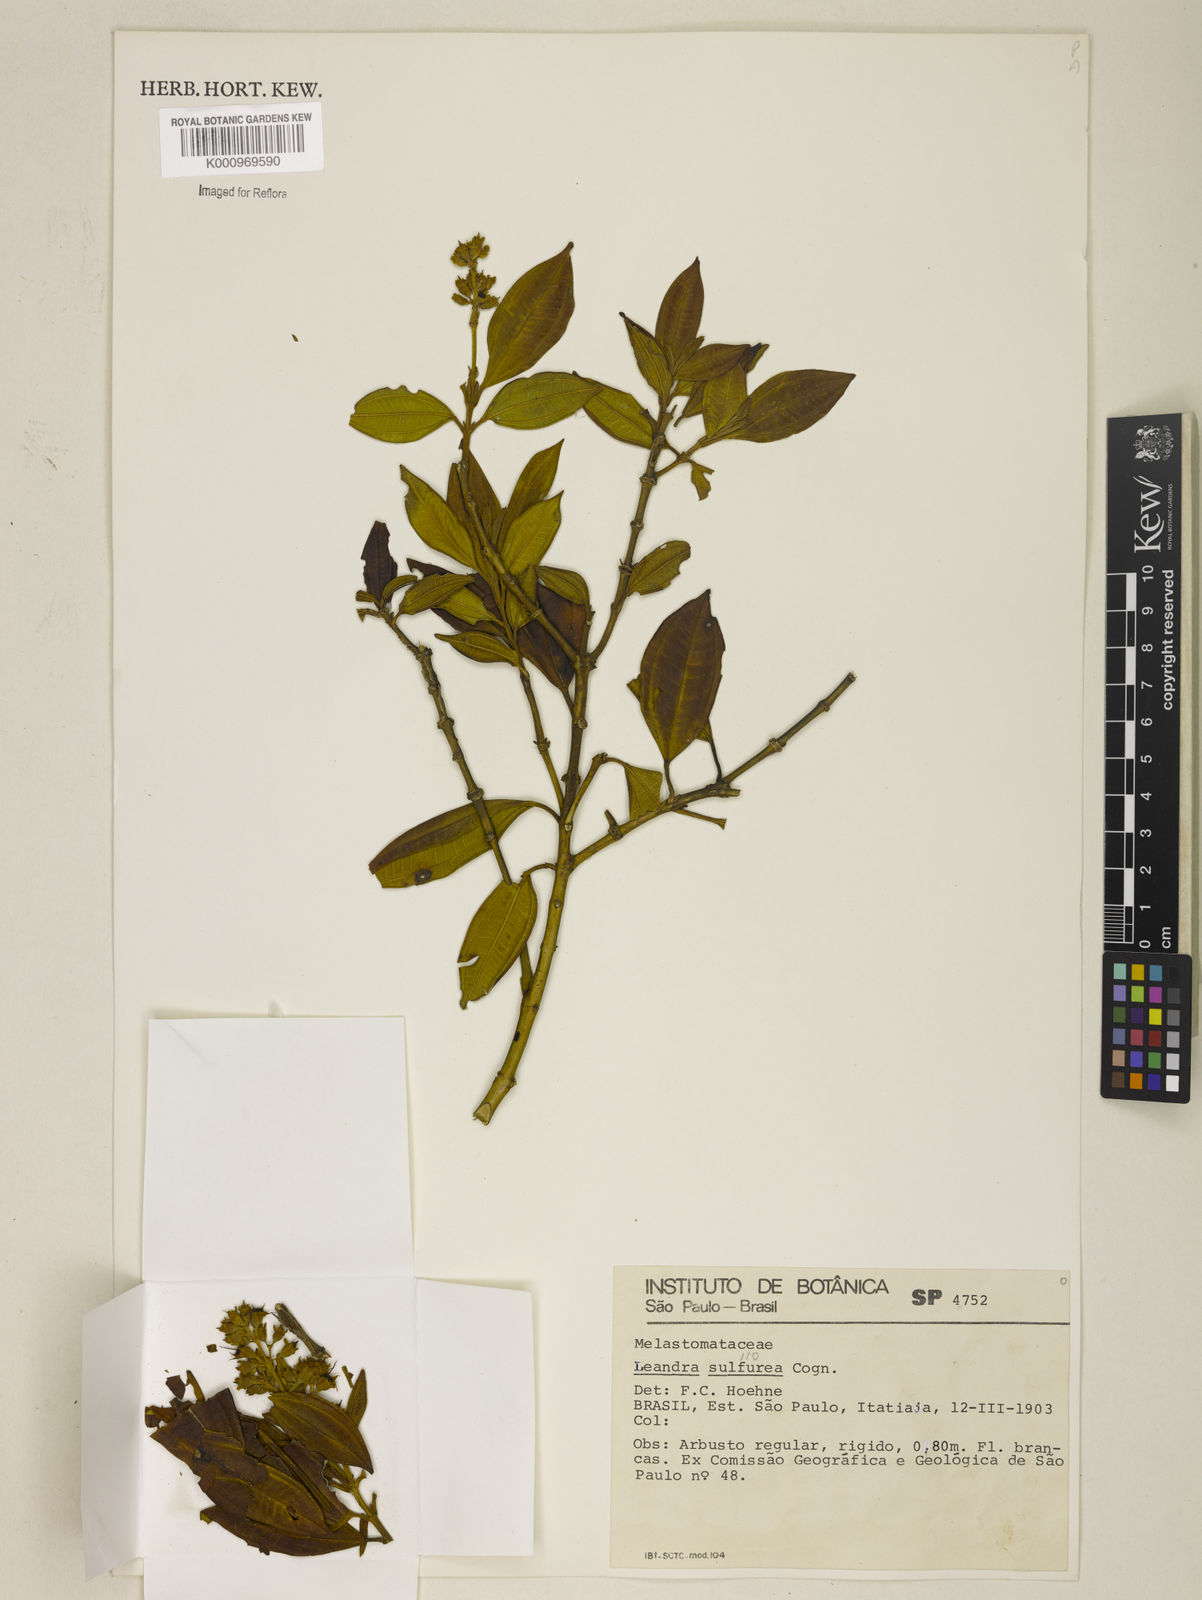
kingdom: Plantae
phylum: Tracheophyta
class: Magnoliopsida
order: Myrtales
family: Melastomataceae
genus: Miconia
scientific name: Miconia sulfurea
